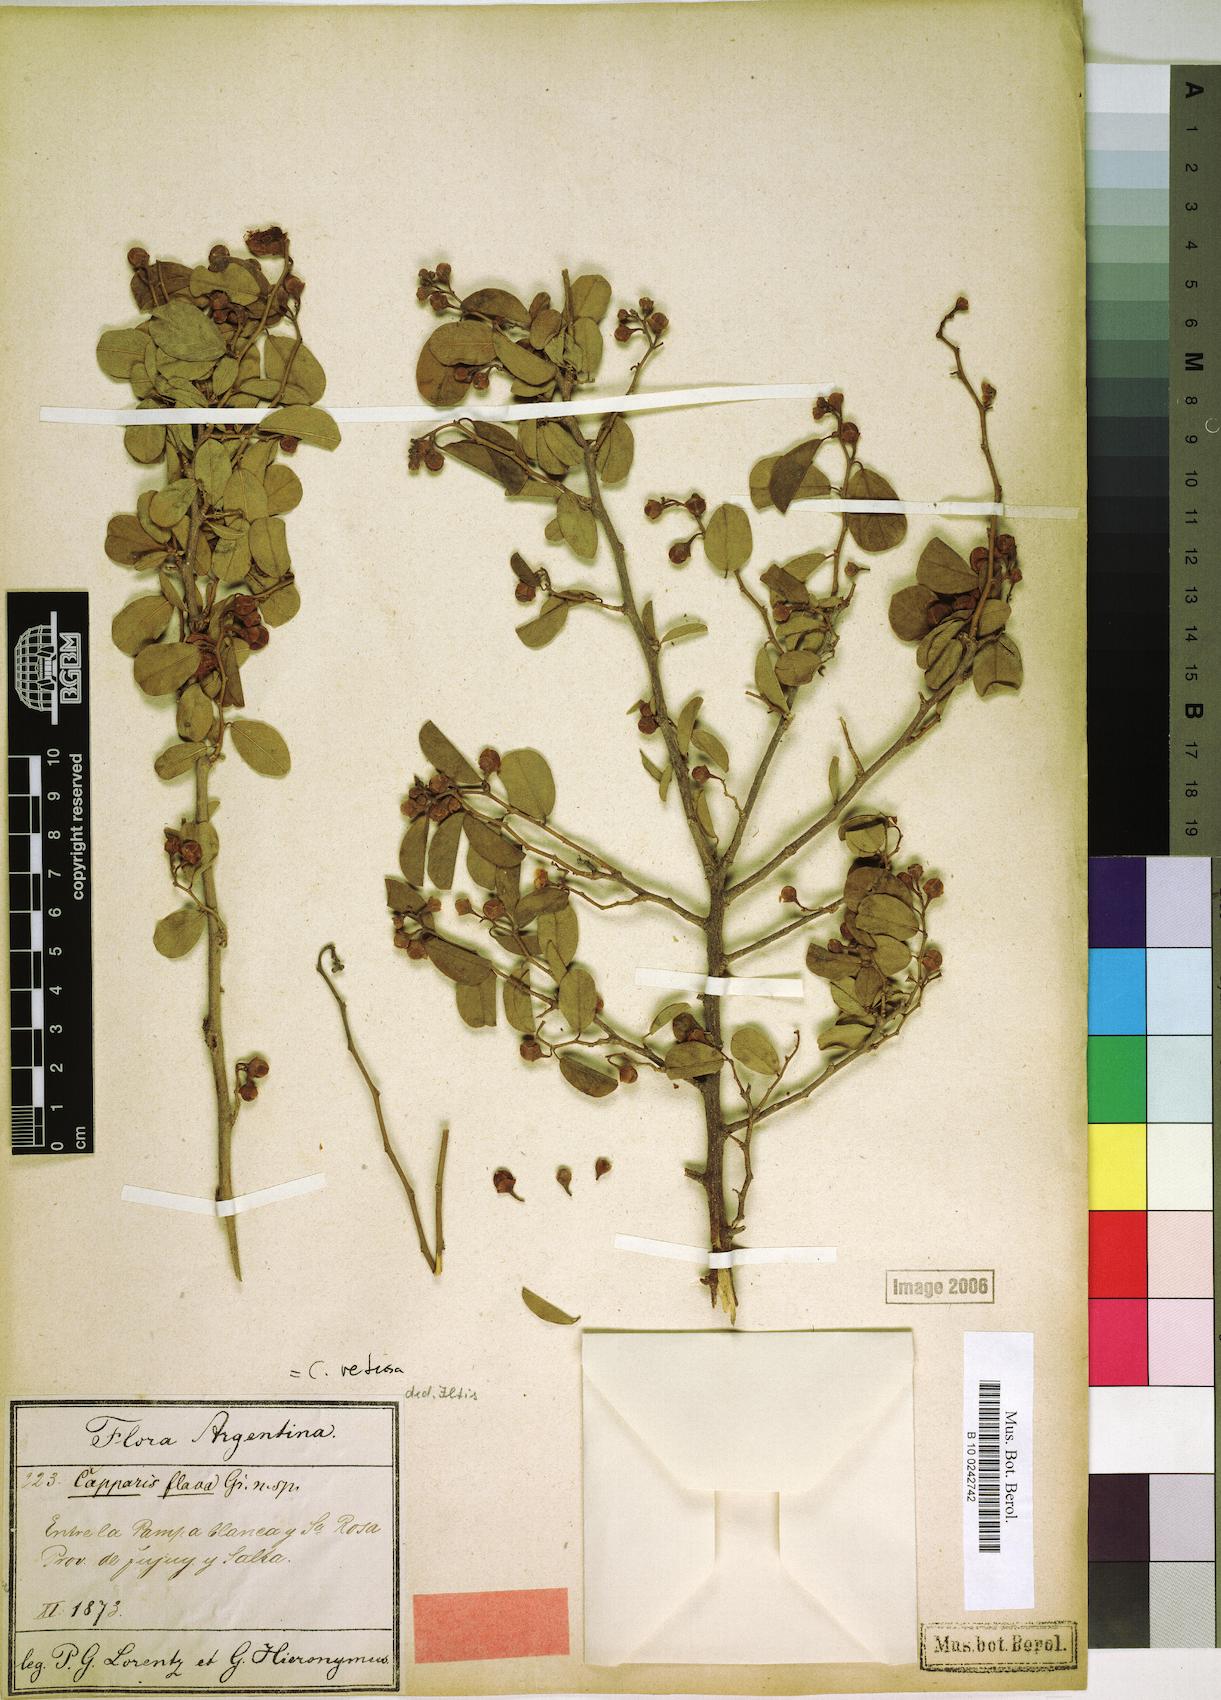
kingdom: Plantae
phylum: Tracheophyta
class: Magnoliopsida
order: Brassicales
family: Capparaceae
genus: Cynophalla
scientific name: Cynophalla retusa
